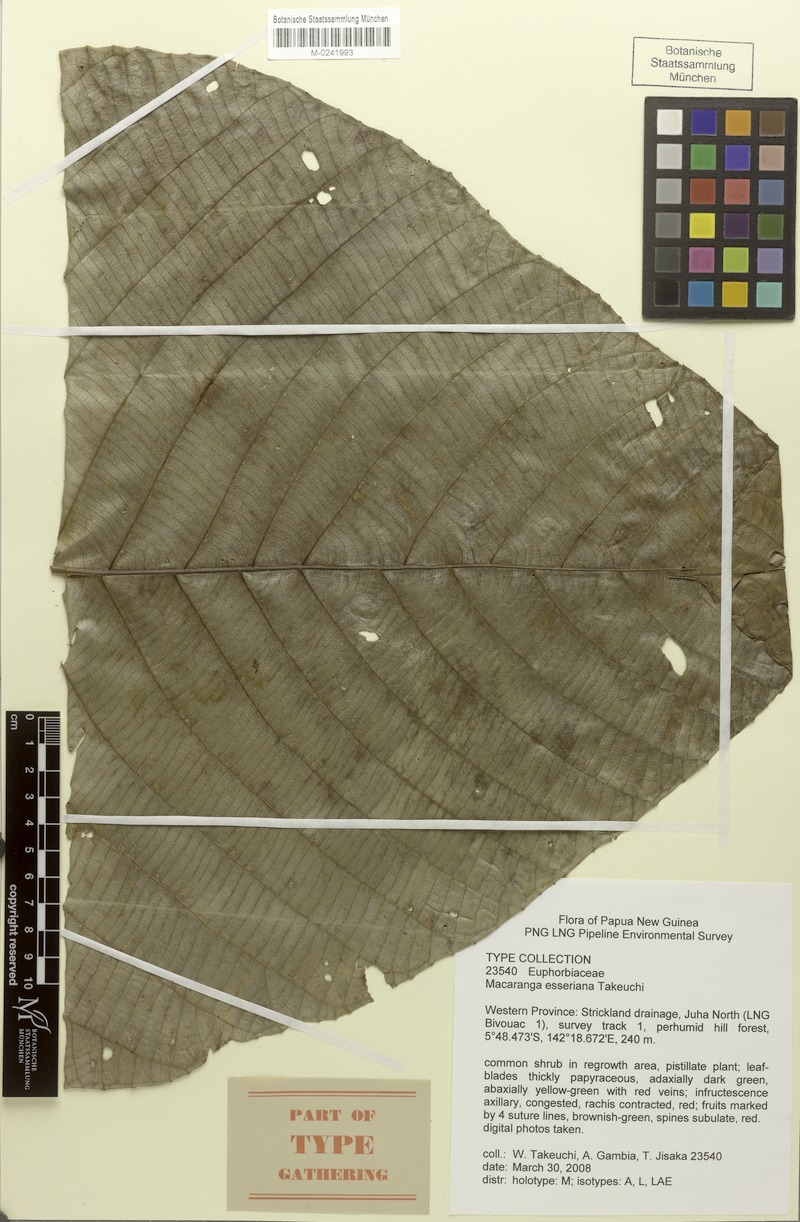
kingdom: Plantae
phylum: Tracheophyta
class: Magnoliopsida
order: Malpighiales
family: Euphorbiaceae
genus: Macaranga
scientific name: Macaranga esseriana
